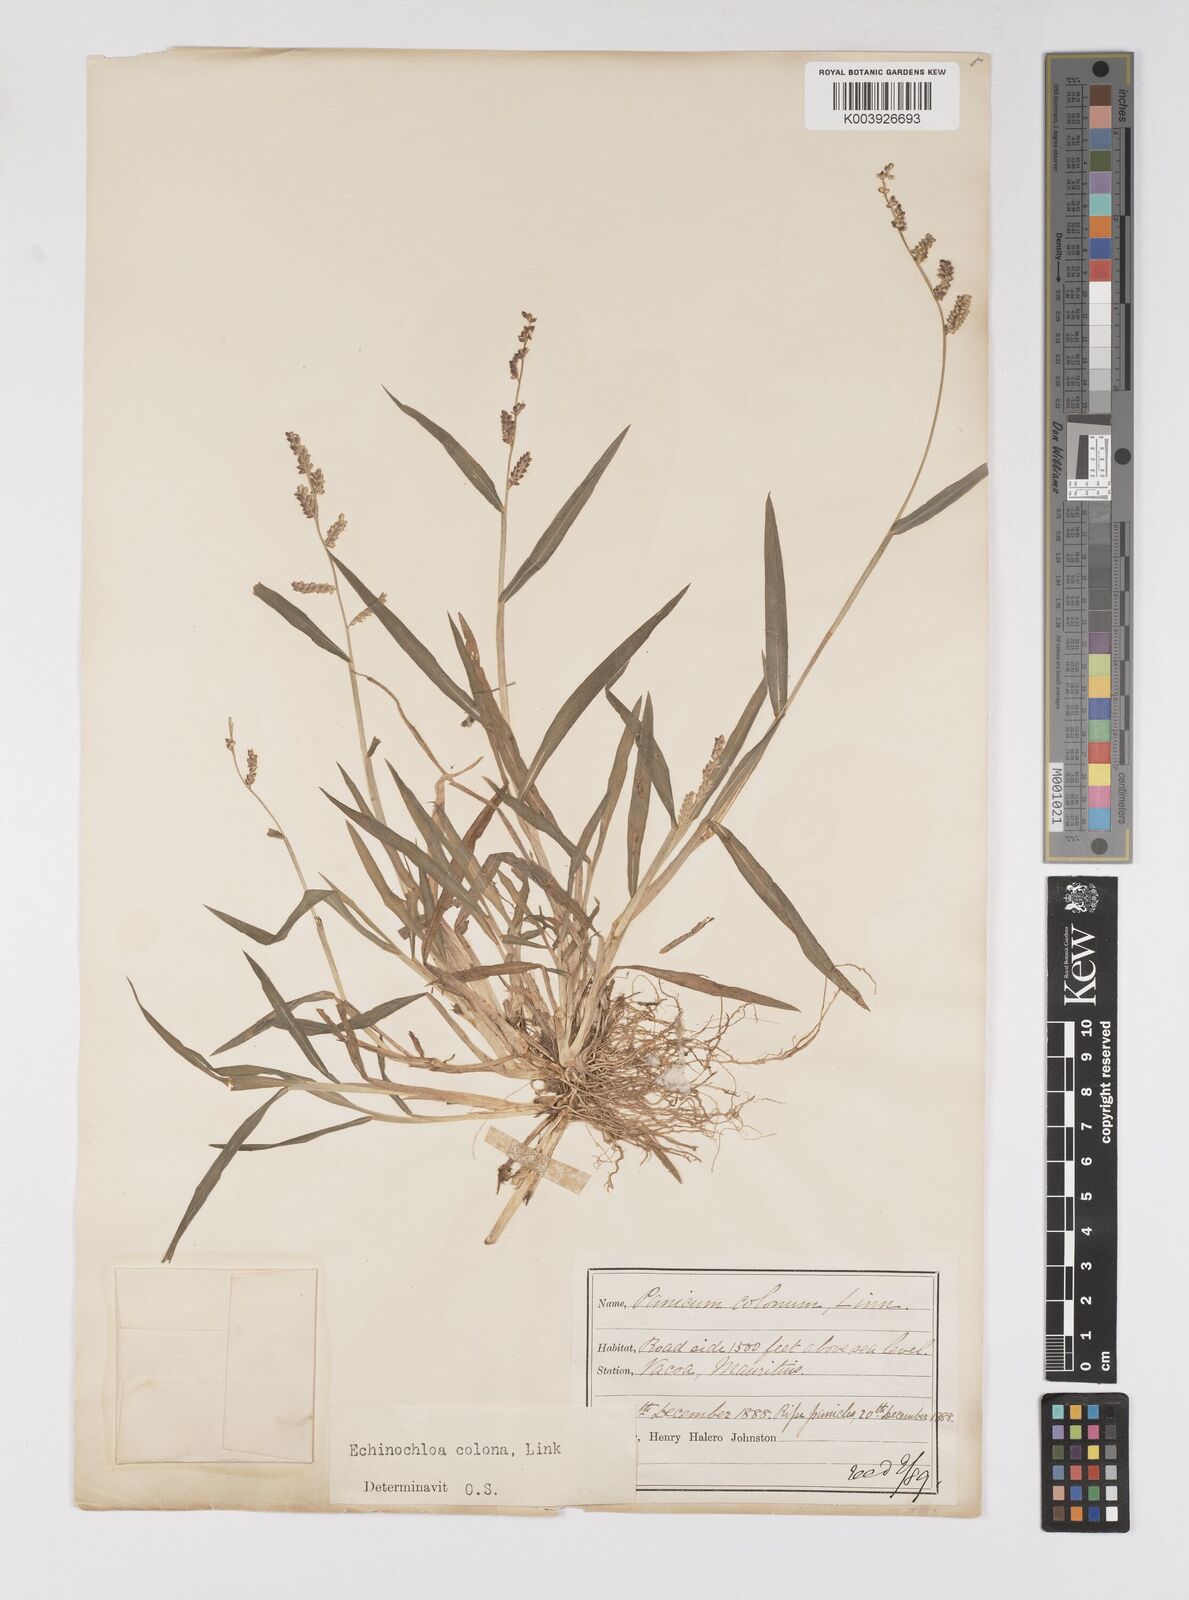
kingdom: Plantae
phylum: Tracheophyta
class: Liliopsida
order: Poales
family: Poaceae
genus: Echinochloa
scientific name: Echinochloa colonum
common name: Jungle rice
